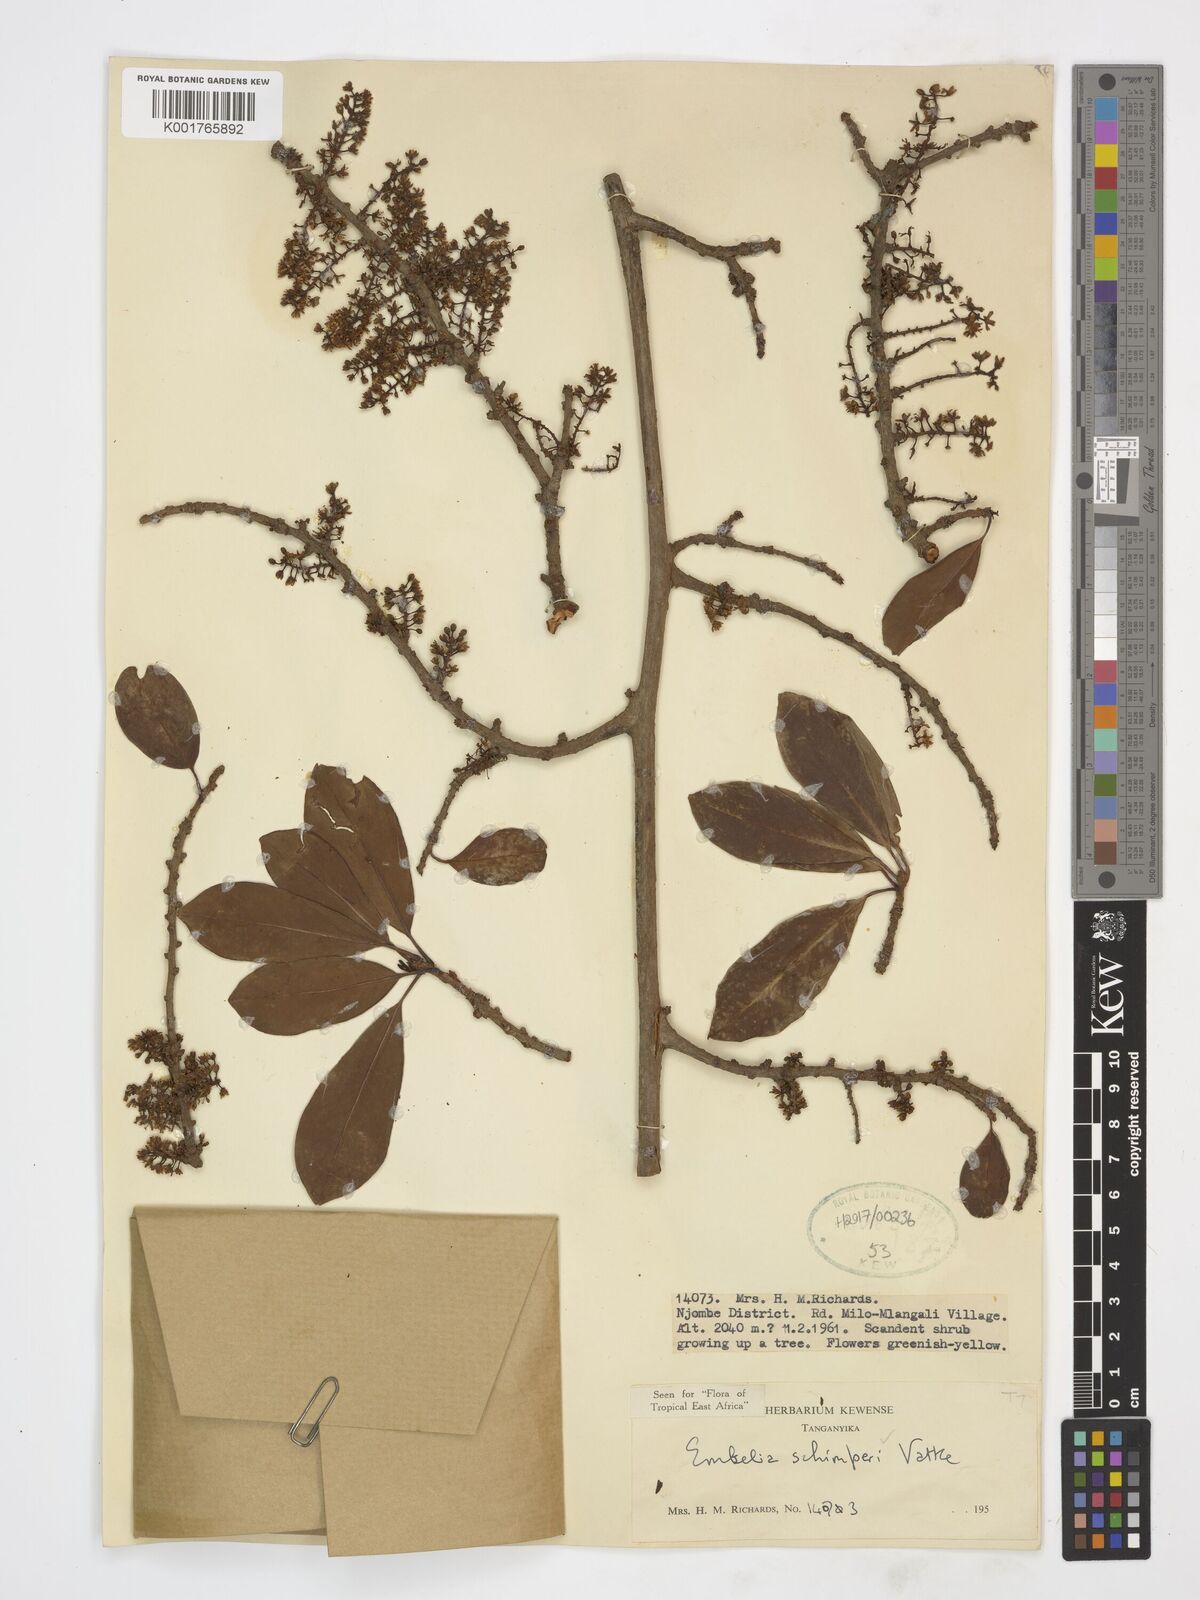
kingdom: Plantae
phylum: Tracheophyta
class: Magnoliopsida
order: Ericales
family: Primulaceae
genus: Embelia
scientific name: Embelia schimperi
